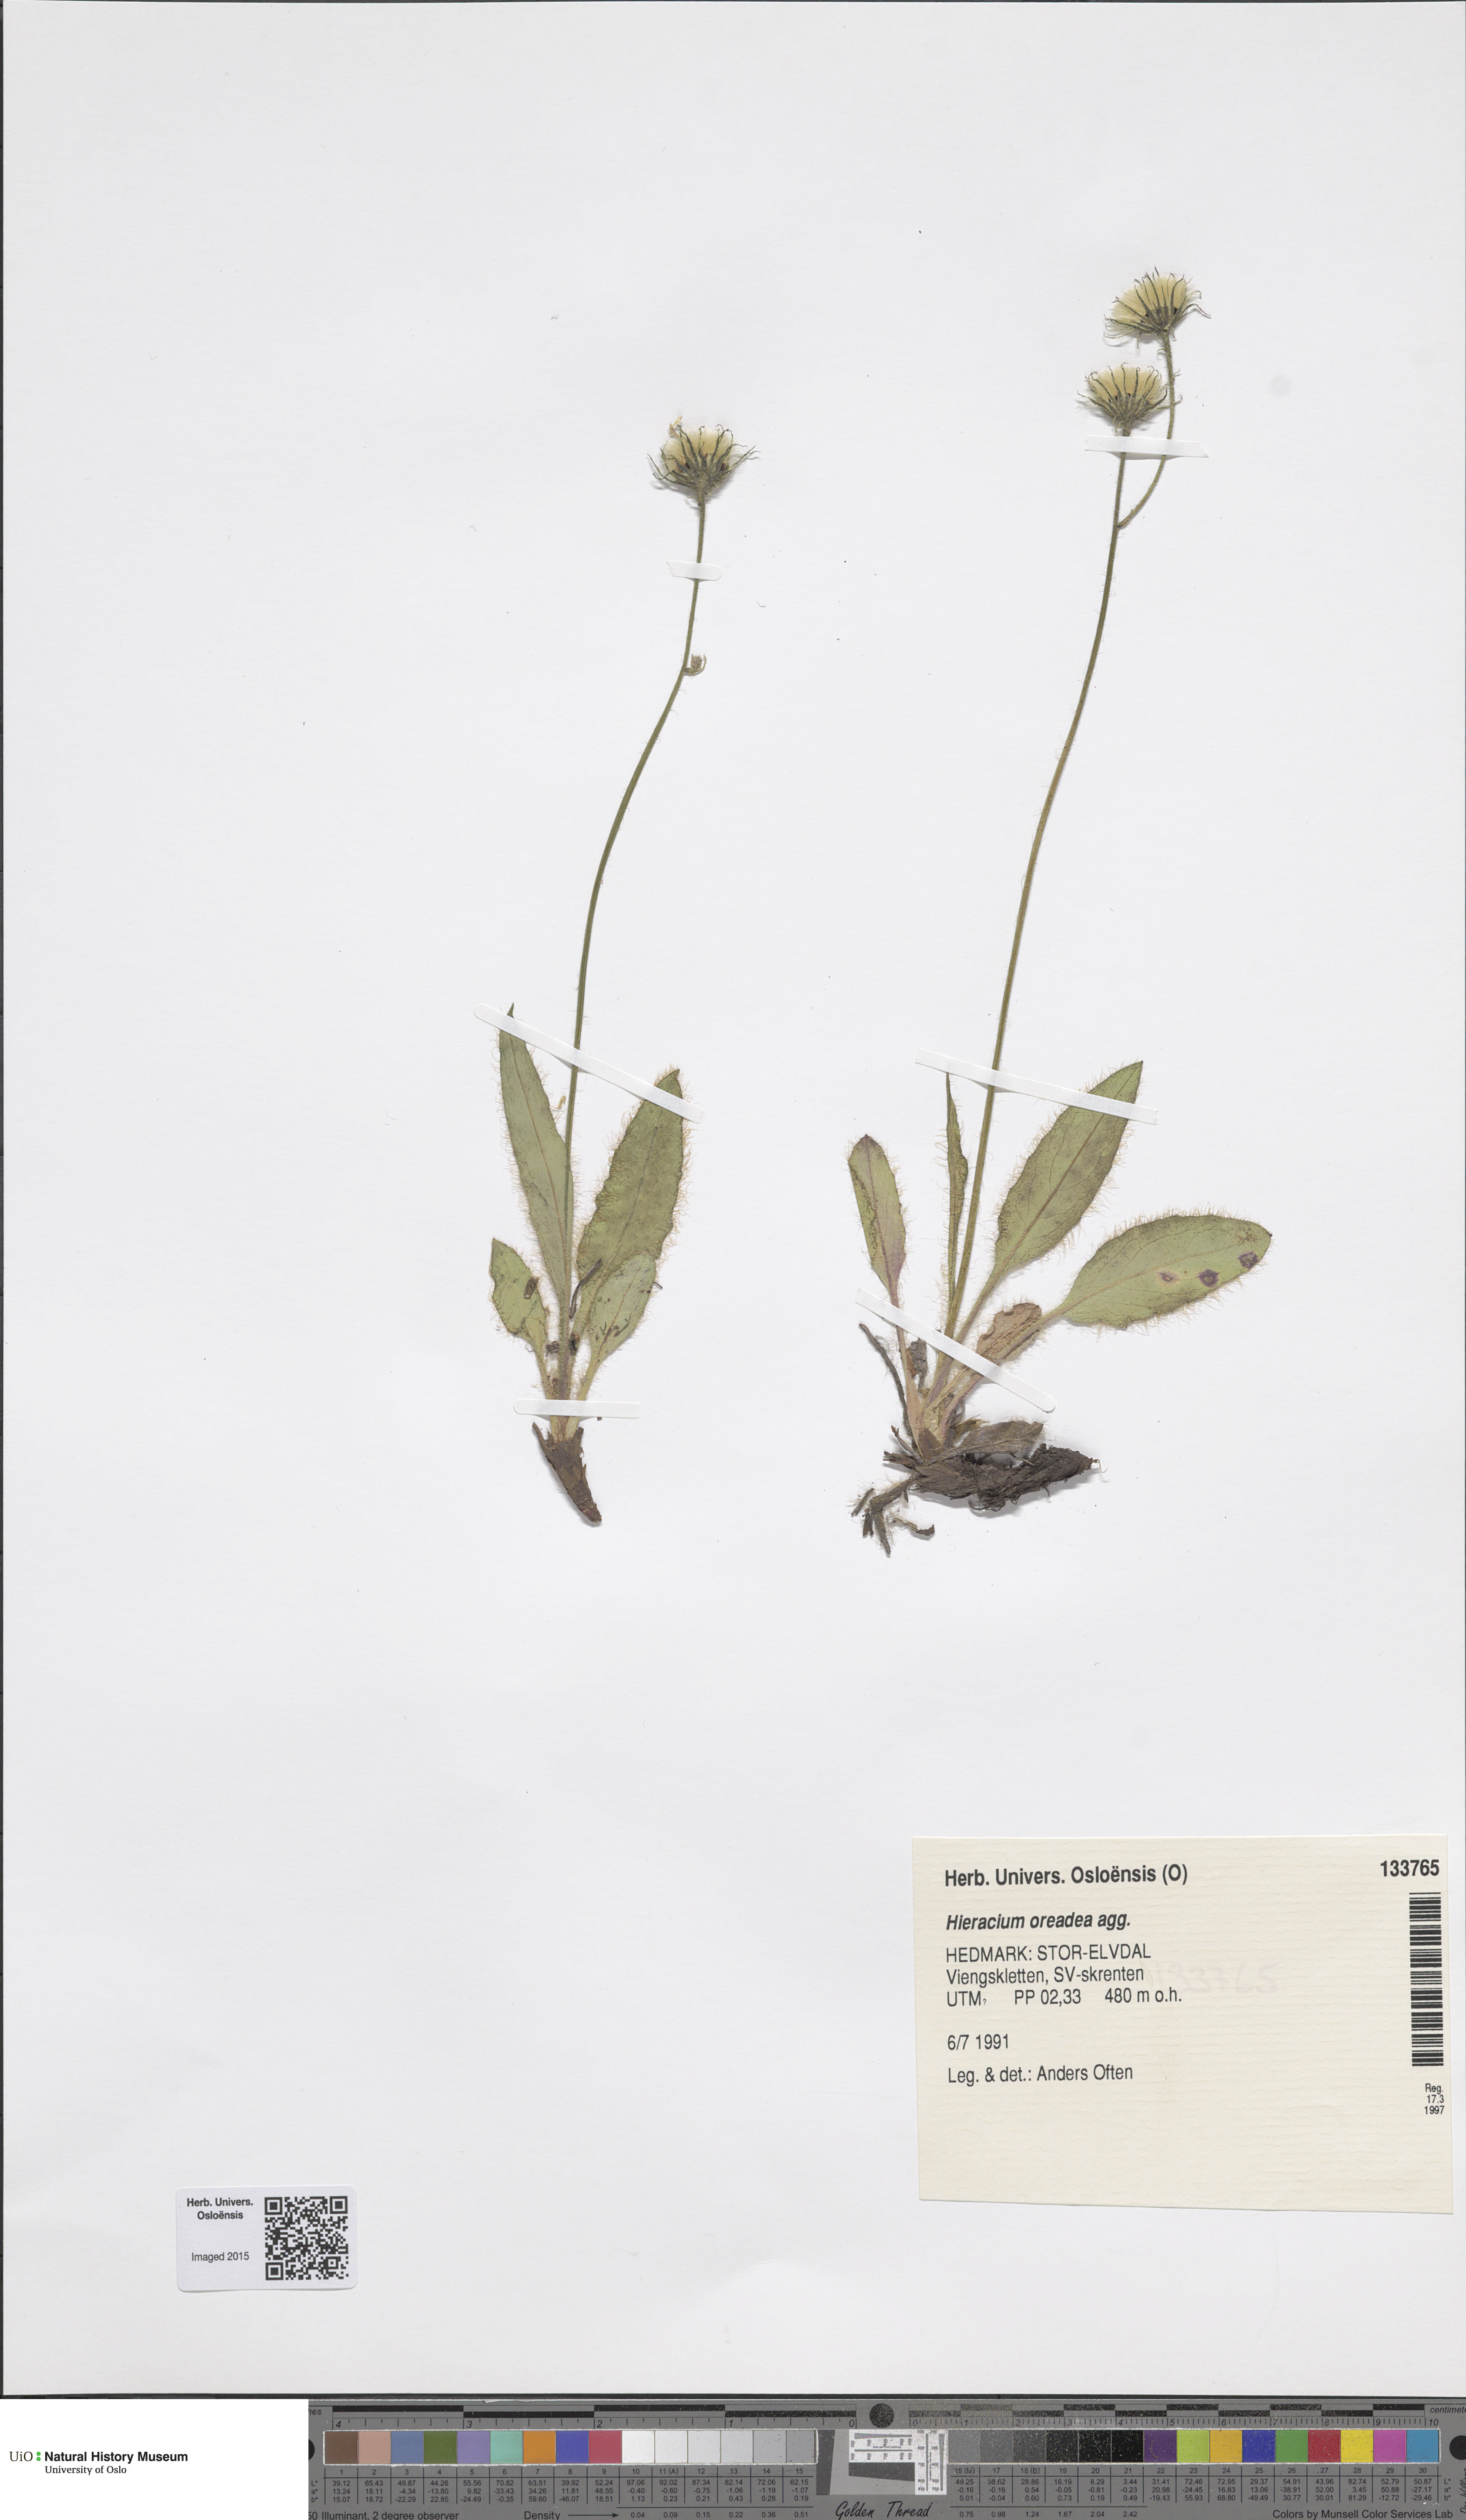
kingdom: Plantae
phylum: Tracheophyta
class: Magnoliopsida
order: Asterales
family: Asteraceae
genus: Hieracium
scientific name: Hieracium
